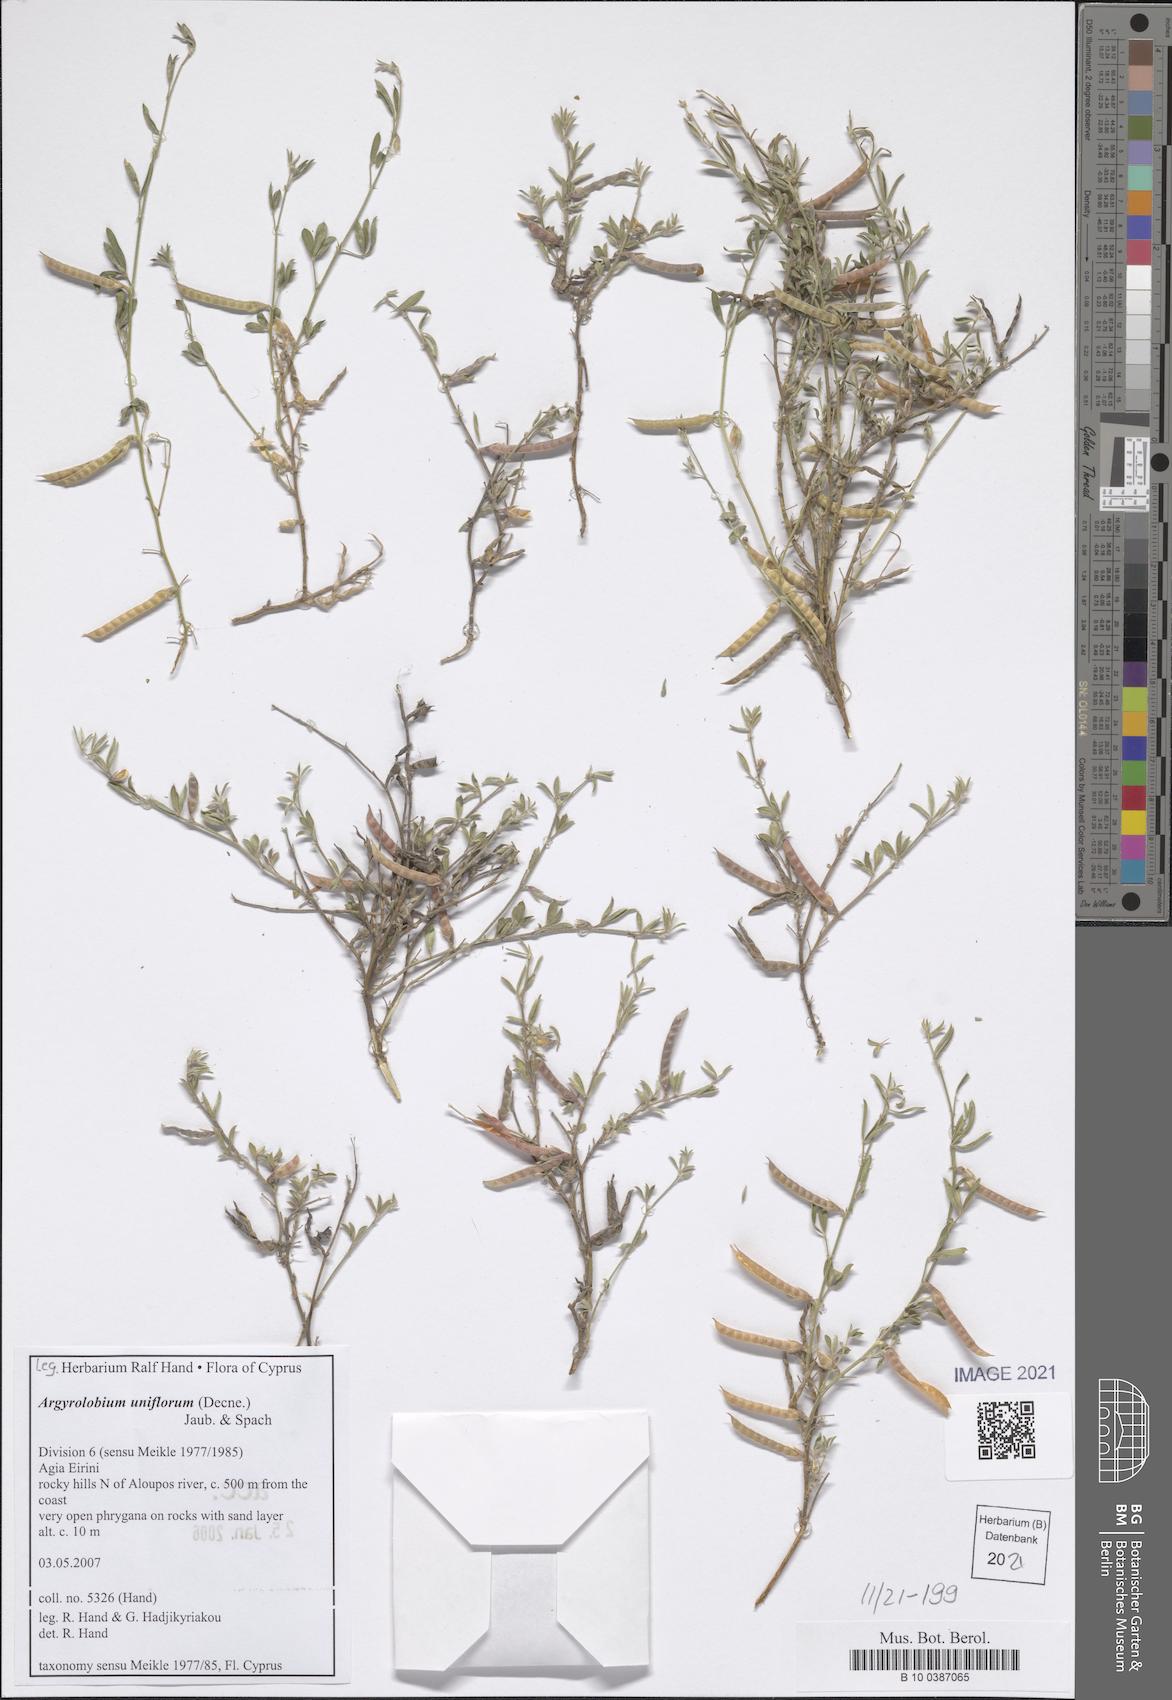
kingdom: Plantae
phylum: Tracheophyta
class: Magnoliopsida
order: Fabales
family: Fabaceae
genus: Argyrolobium
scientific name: Argyrolobium uniflorum
